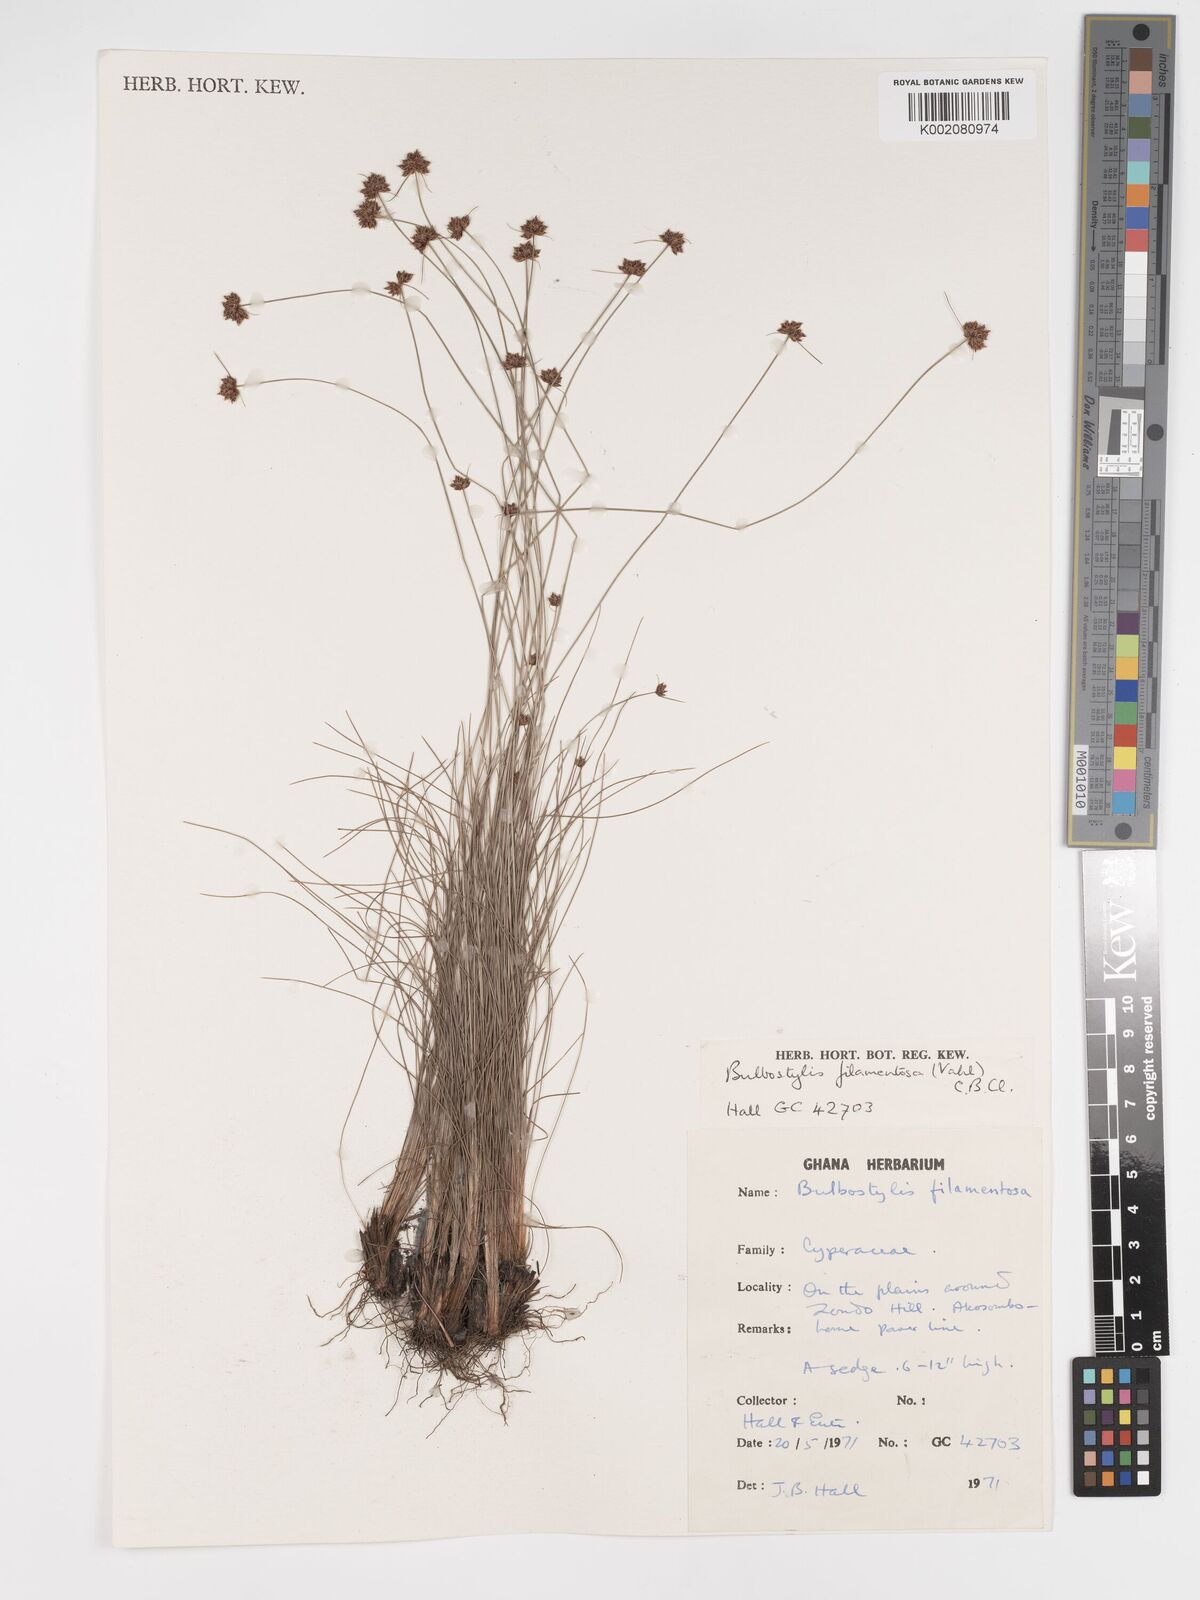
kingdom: Plantae
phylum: Tracheophyta
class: Liliopsida
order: Poales
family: Cyperaceae
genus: Bulbostylis
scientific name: Bulbostylis filamentosa
